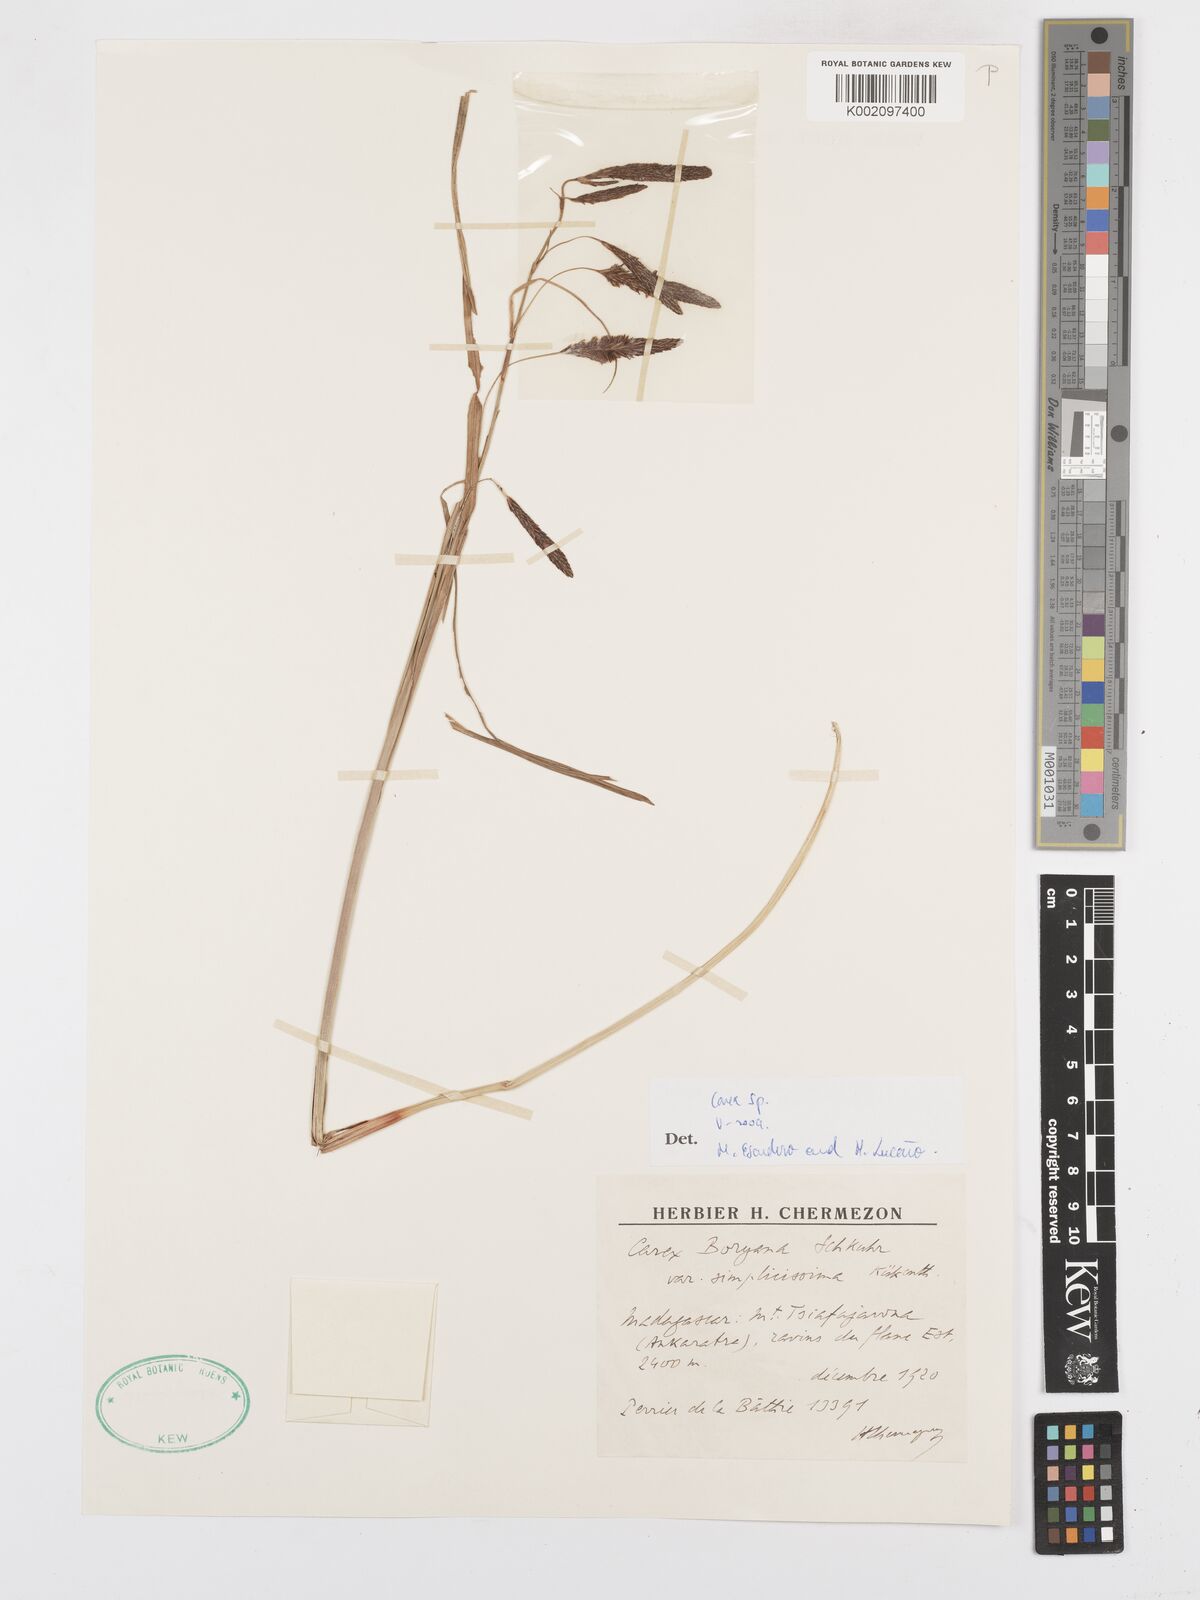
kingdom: Plantae
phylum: Tracheophyta
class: Liliopsida
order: Poales
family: Cyperaceae
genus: Carex
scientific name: Carex
